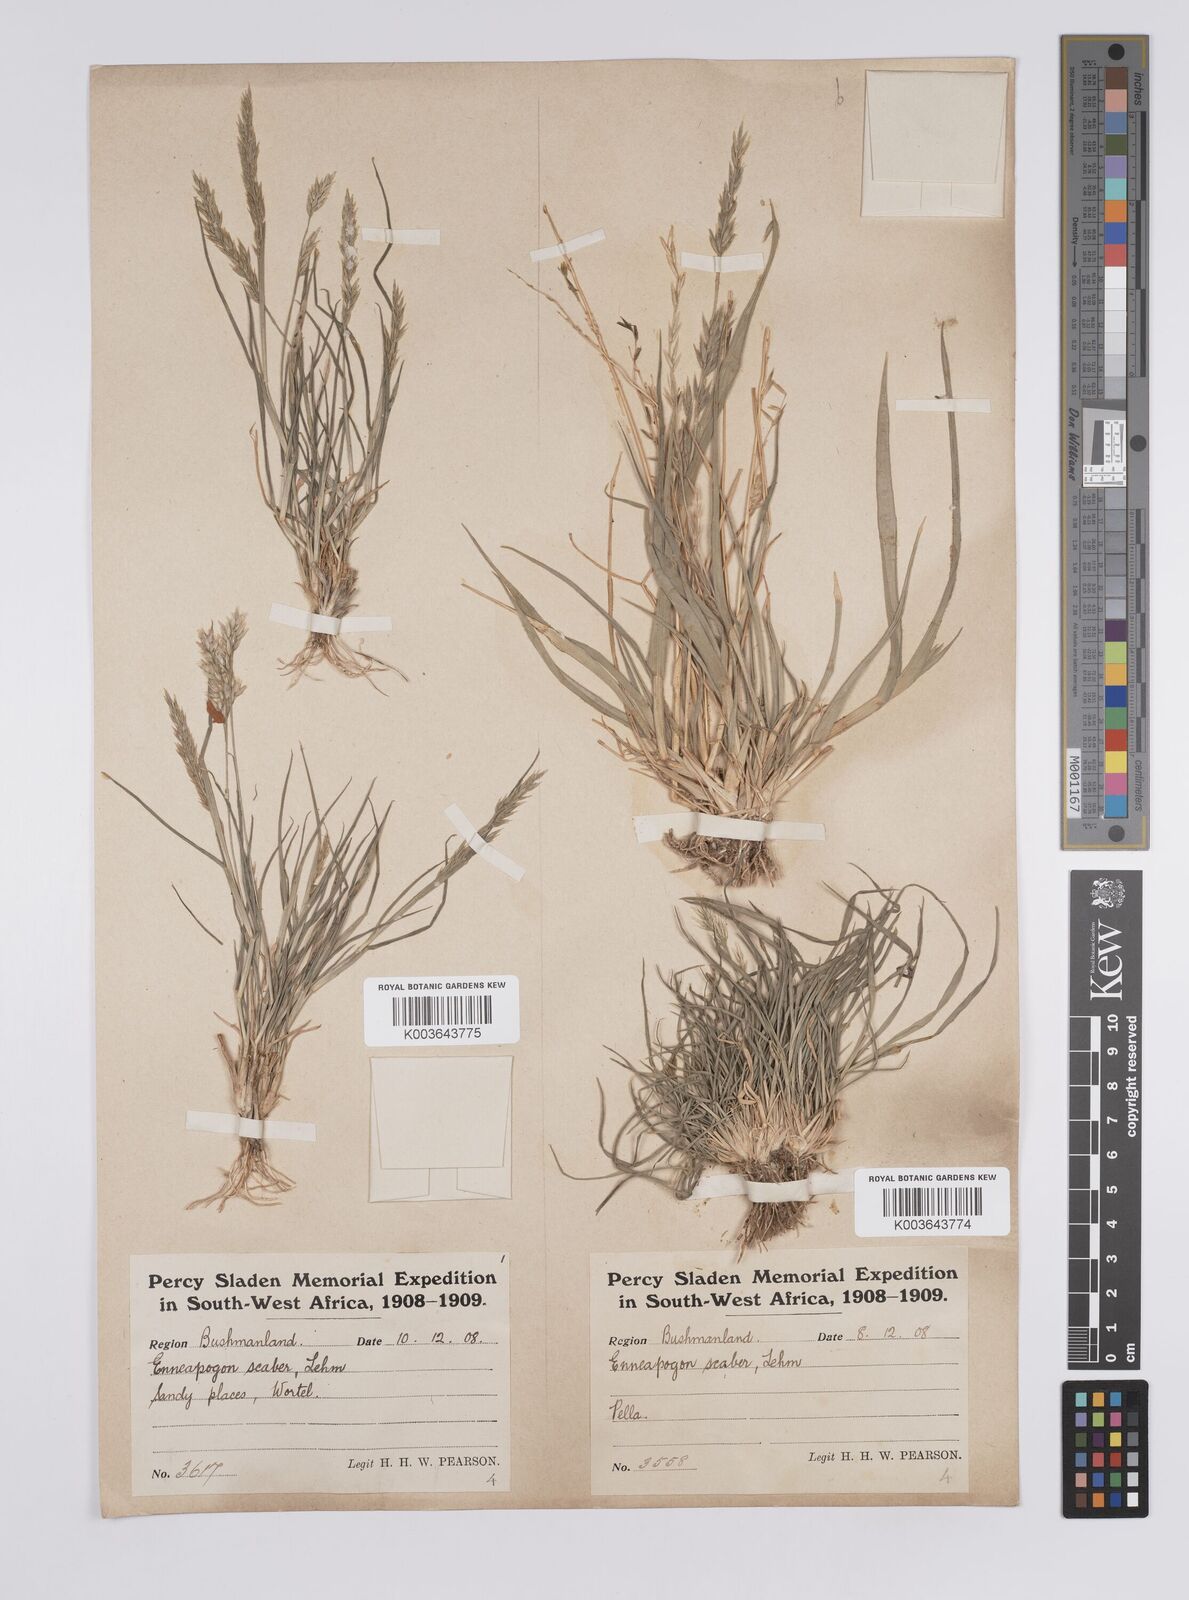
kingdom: Plantae
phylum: Tracheophyta
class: Liliopsida
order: Poales
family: Poaceae
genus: Enneapogon
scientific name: Enneapogon scaber
